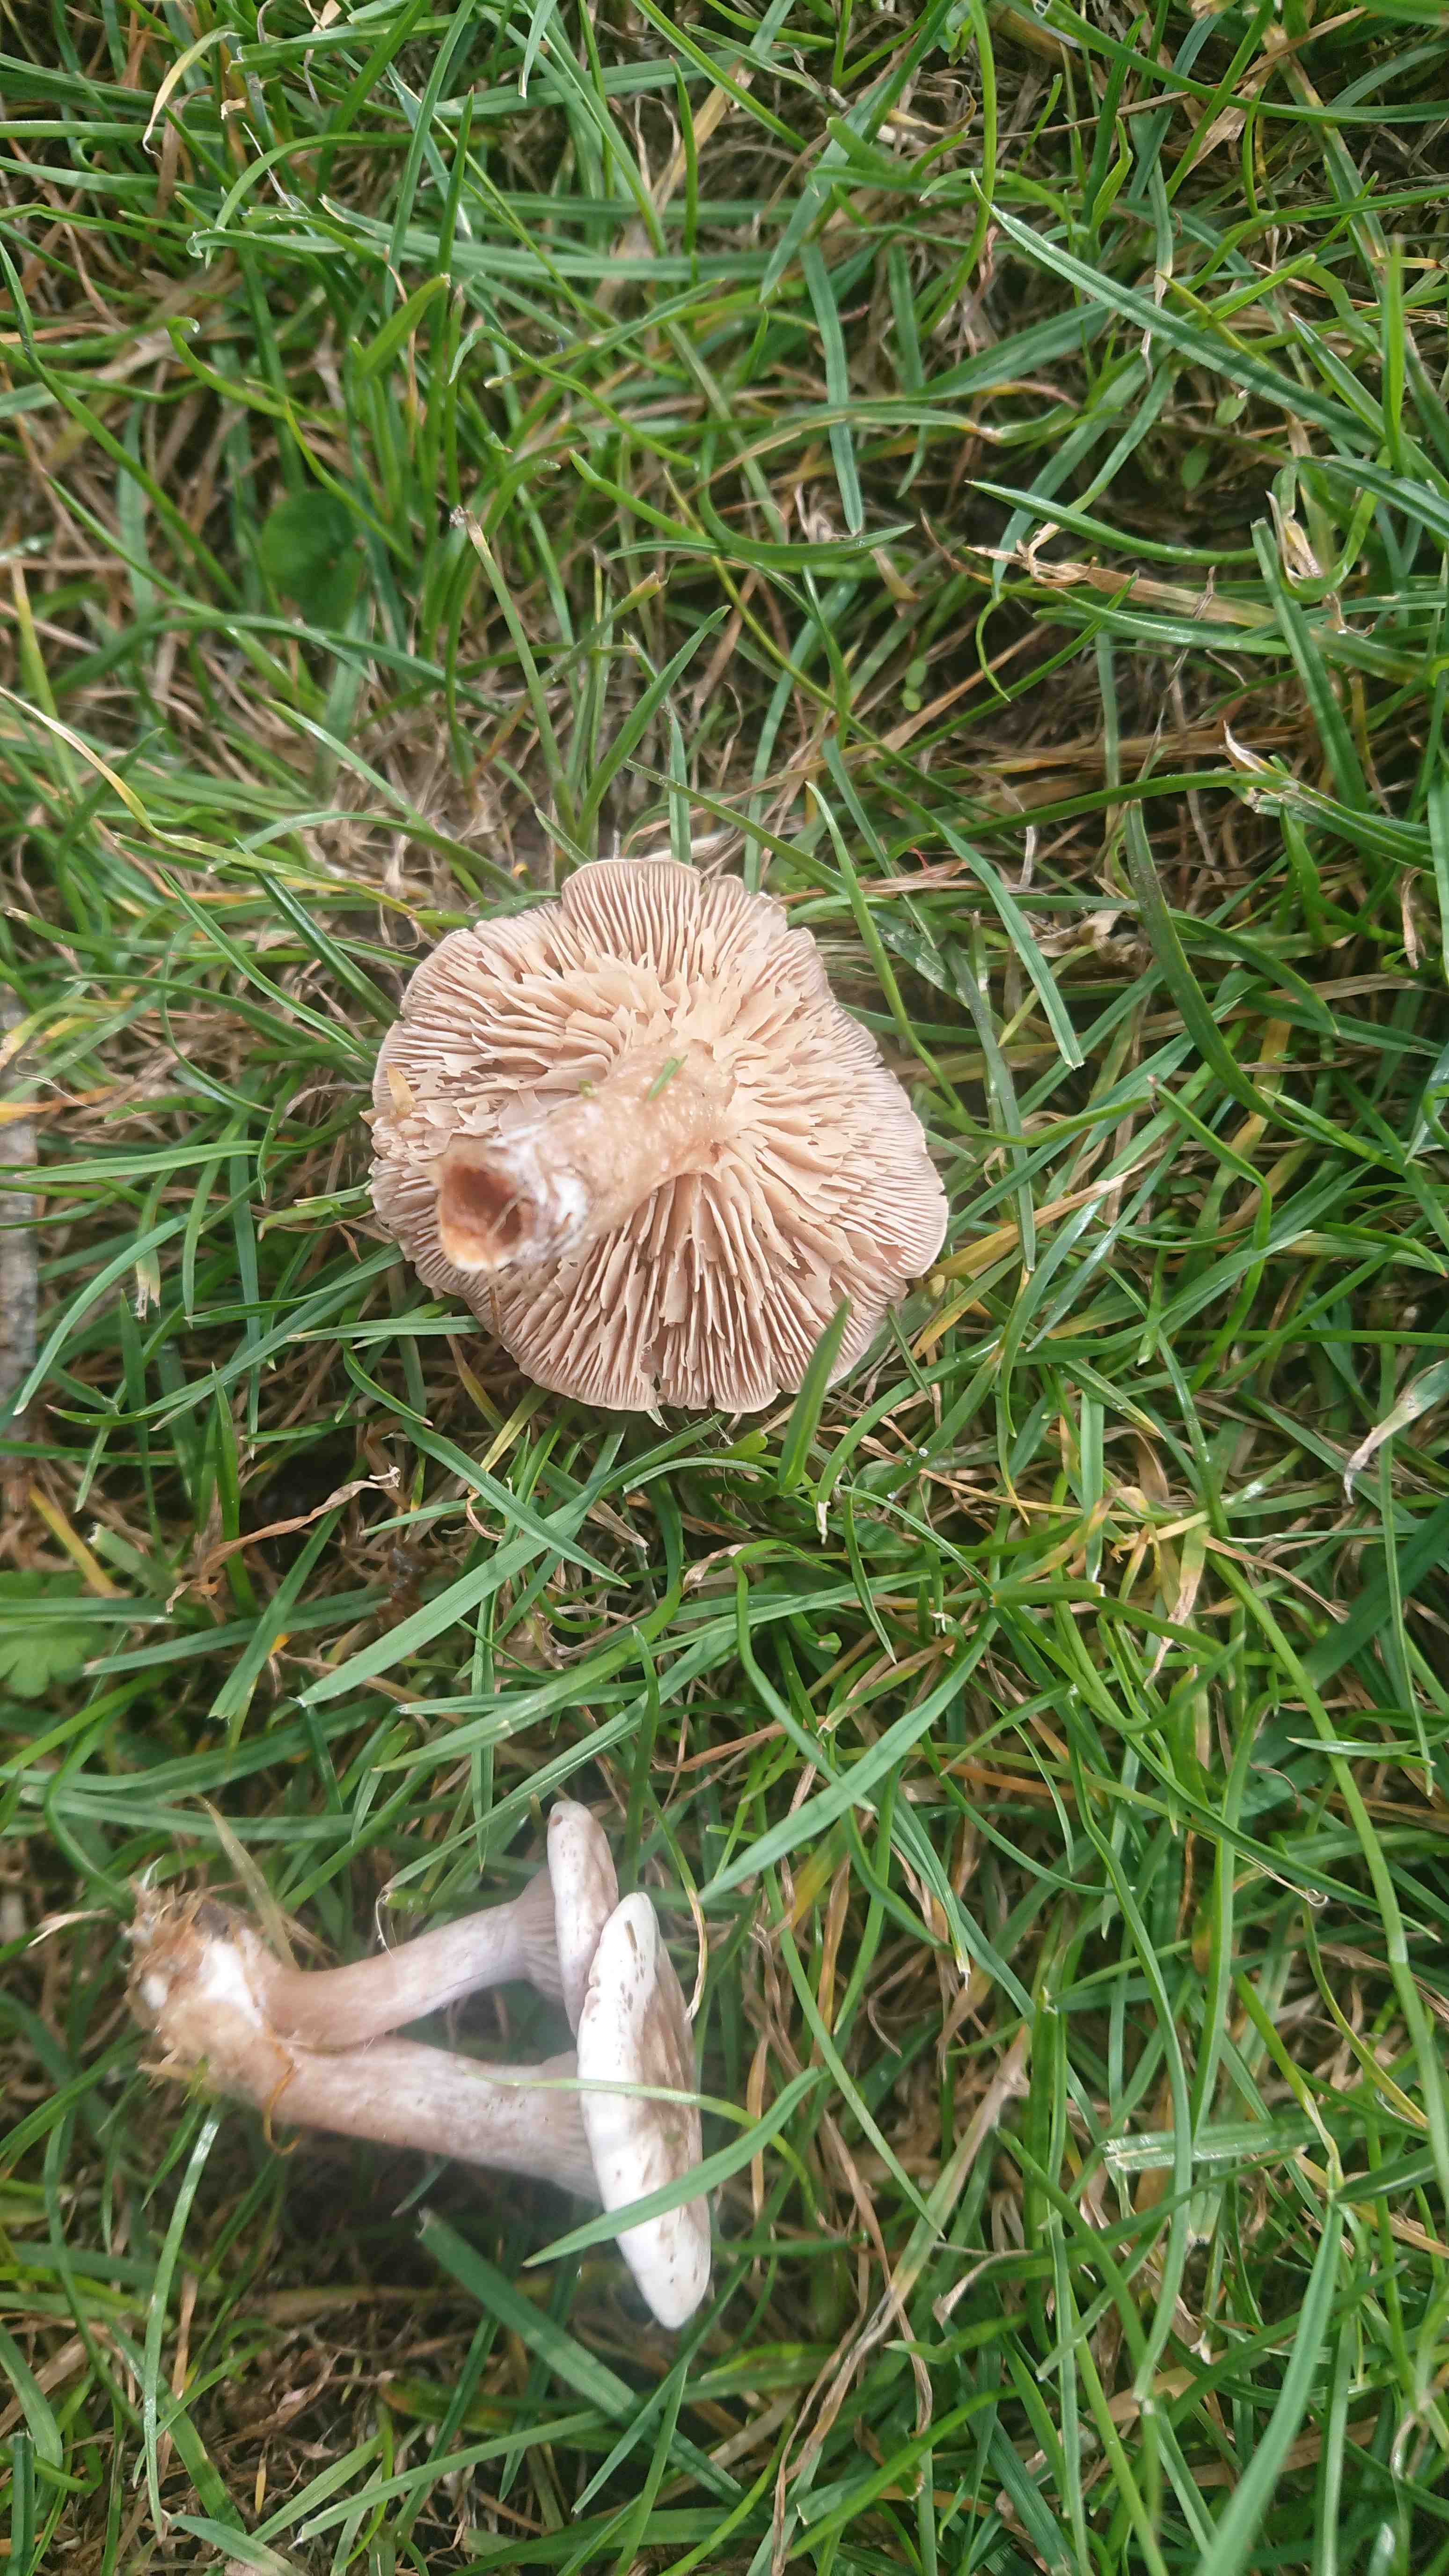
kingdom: Fungi
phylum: Basidiomycota
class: Agaricomycetes
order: Agaricales
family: Tricholomataceae
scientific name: Tricholomataceae
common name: ridderhatfamilien
